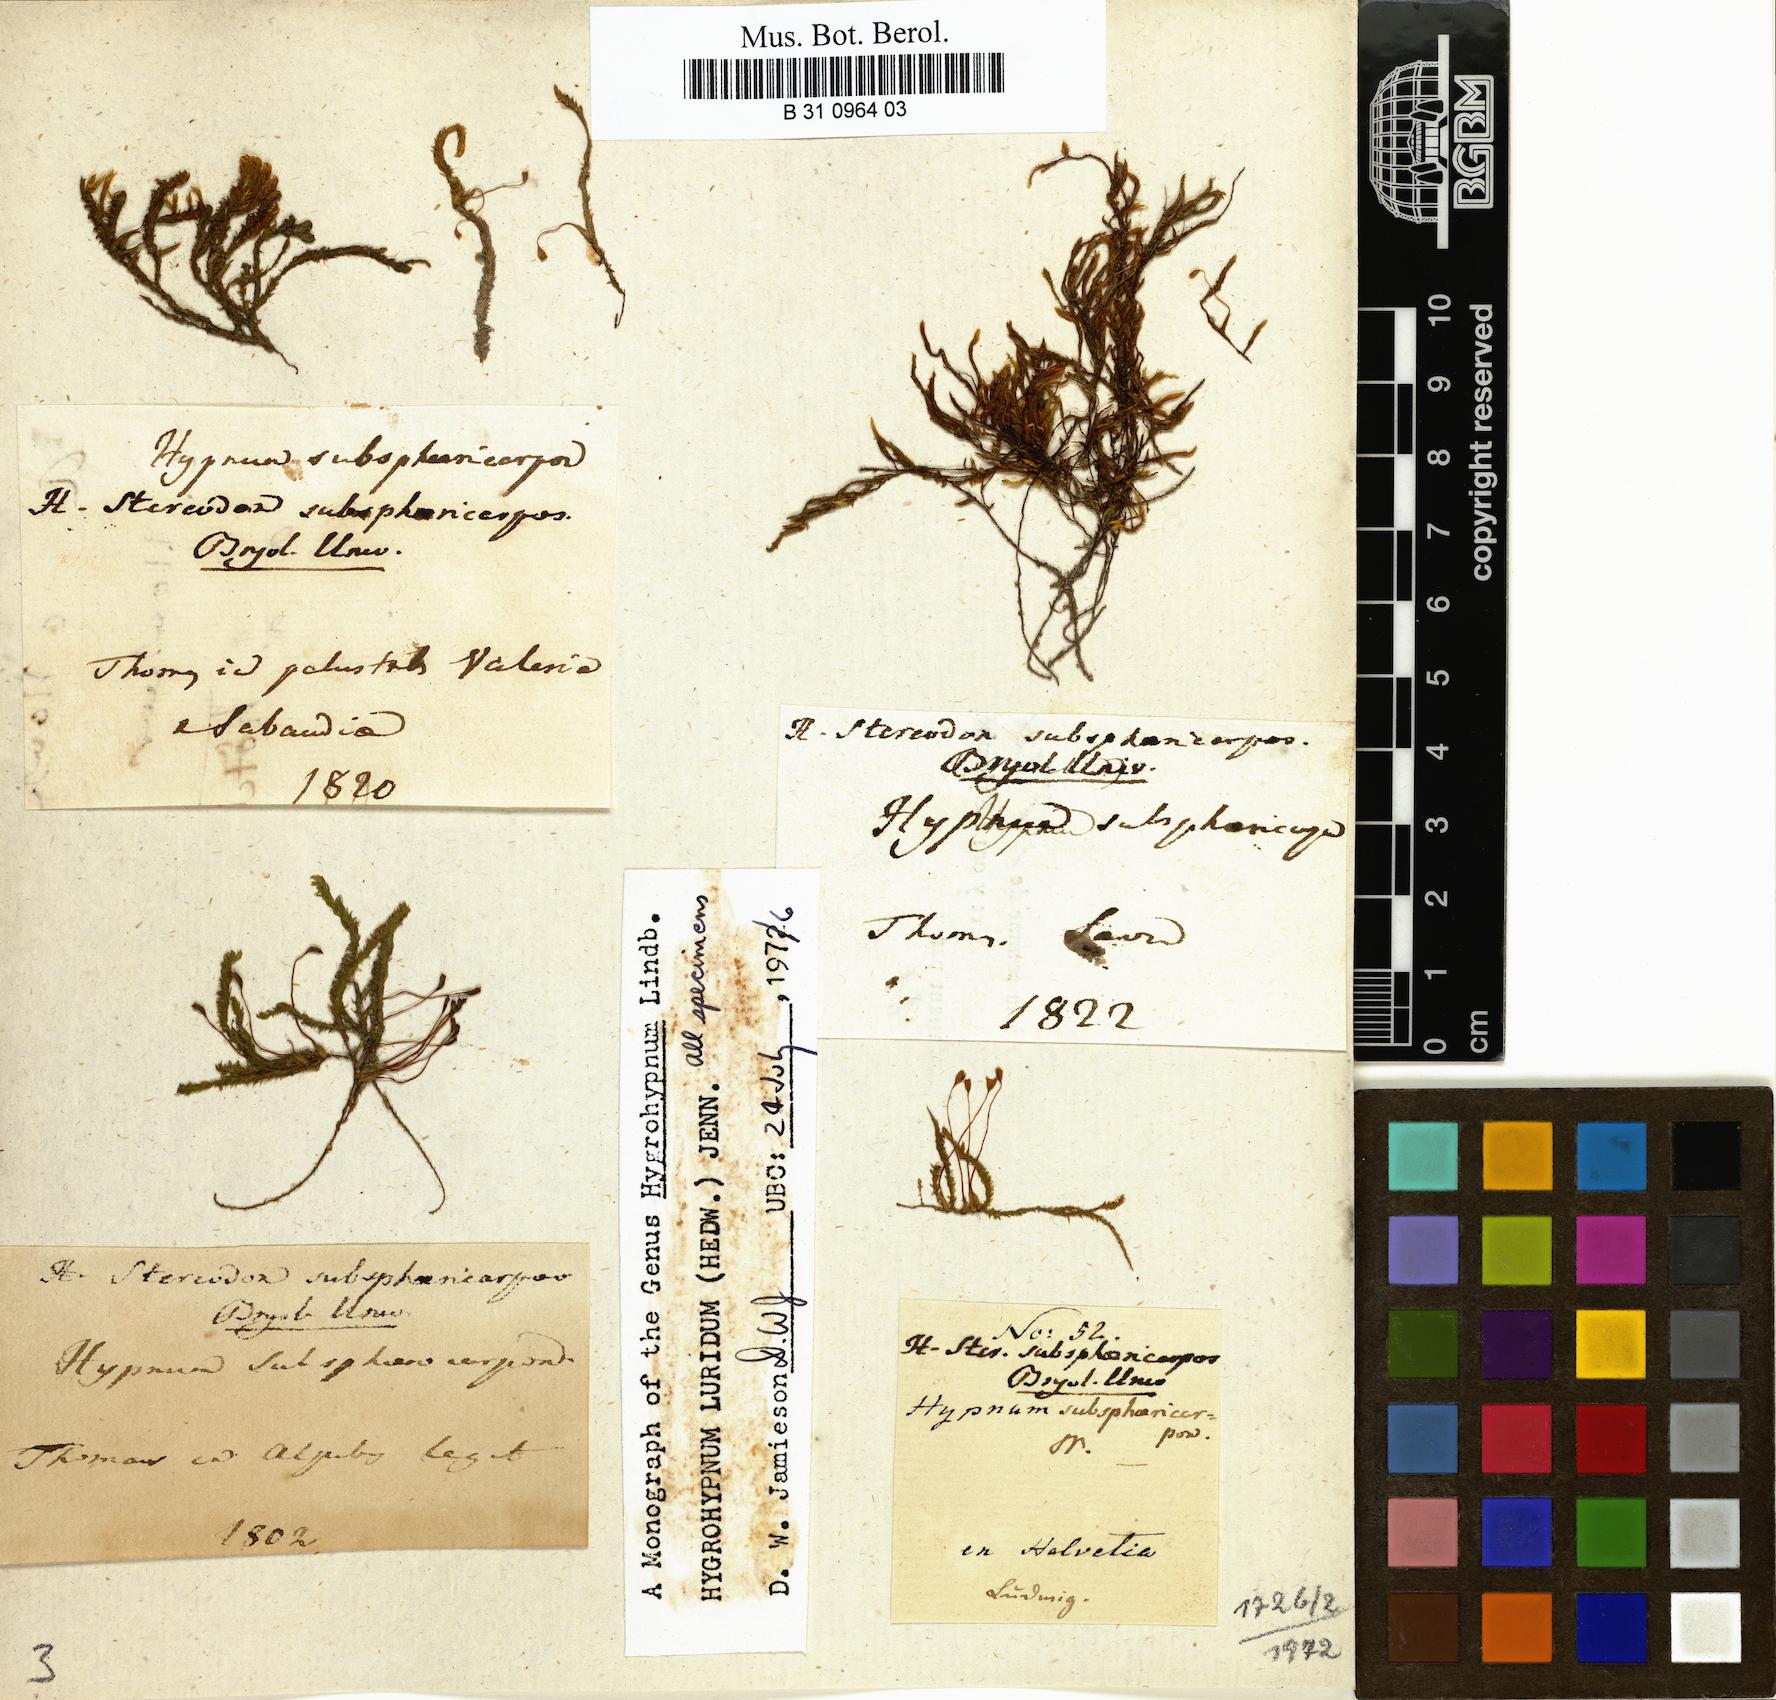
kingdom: Plantae
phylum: Bryophyta
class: Bryopsida
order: Hypnales
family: Stereodontaceae
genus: Stereodon
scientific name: Stereodon subsphaericarpus
